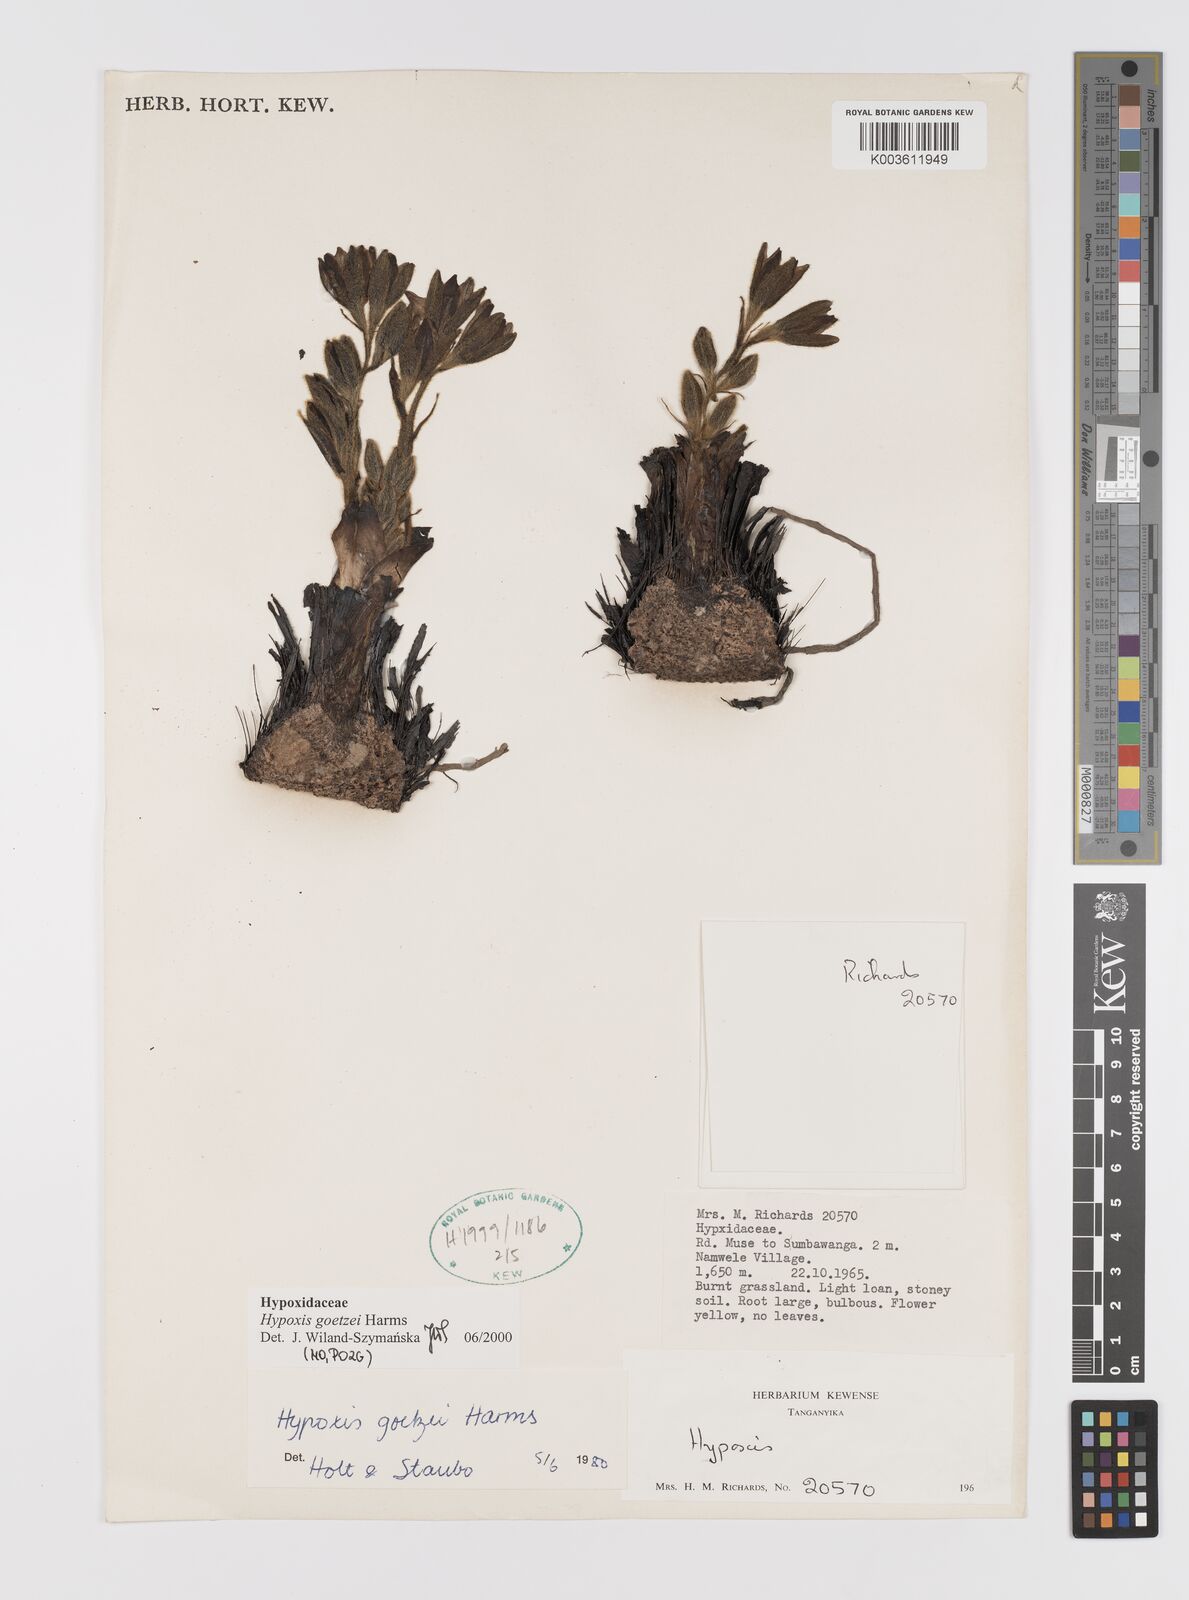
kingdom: Plantae
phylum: Tracheophyta
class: Liliopsida
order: Asparagales
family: Hypoxidaceae
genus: Hypoxis
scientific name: Hypoxis goetzei
